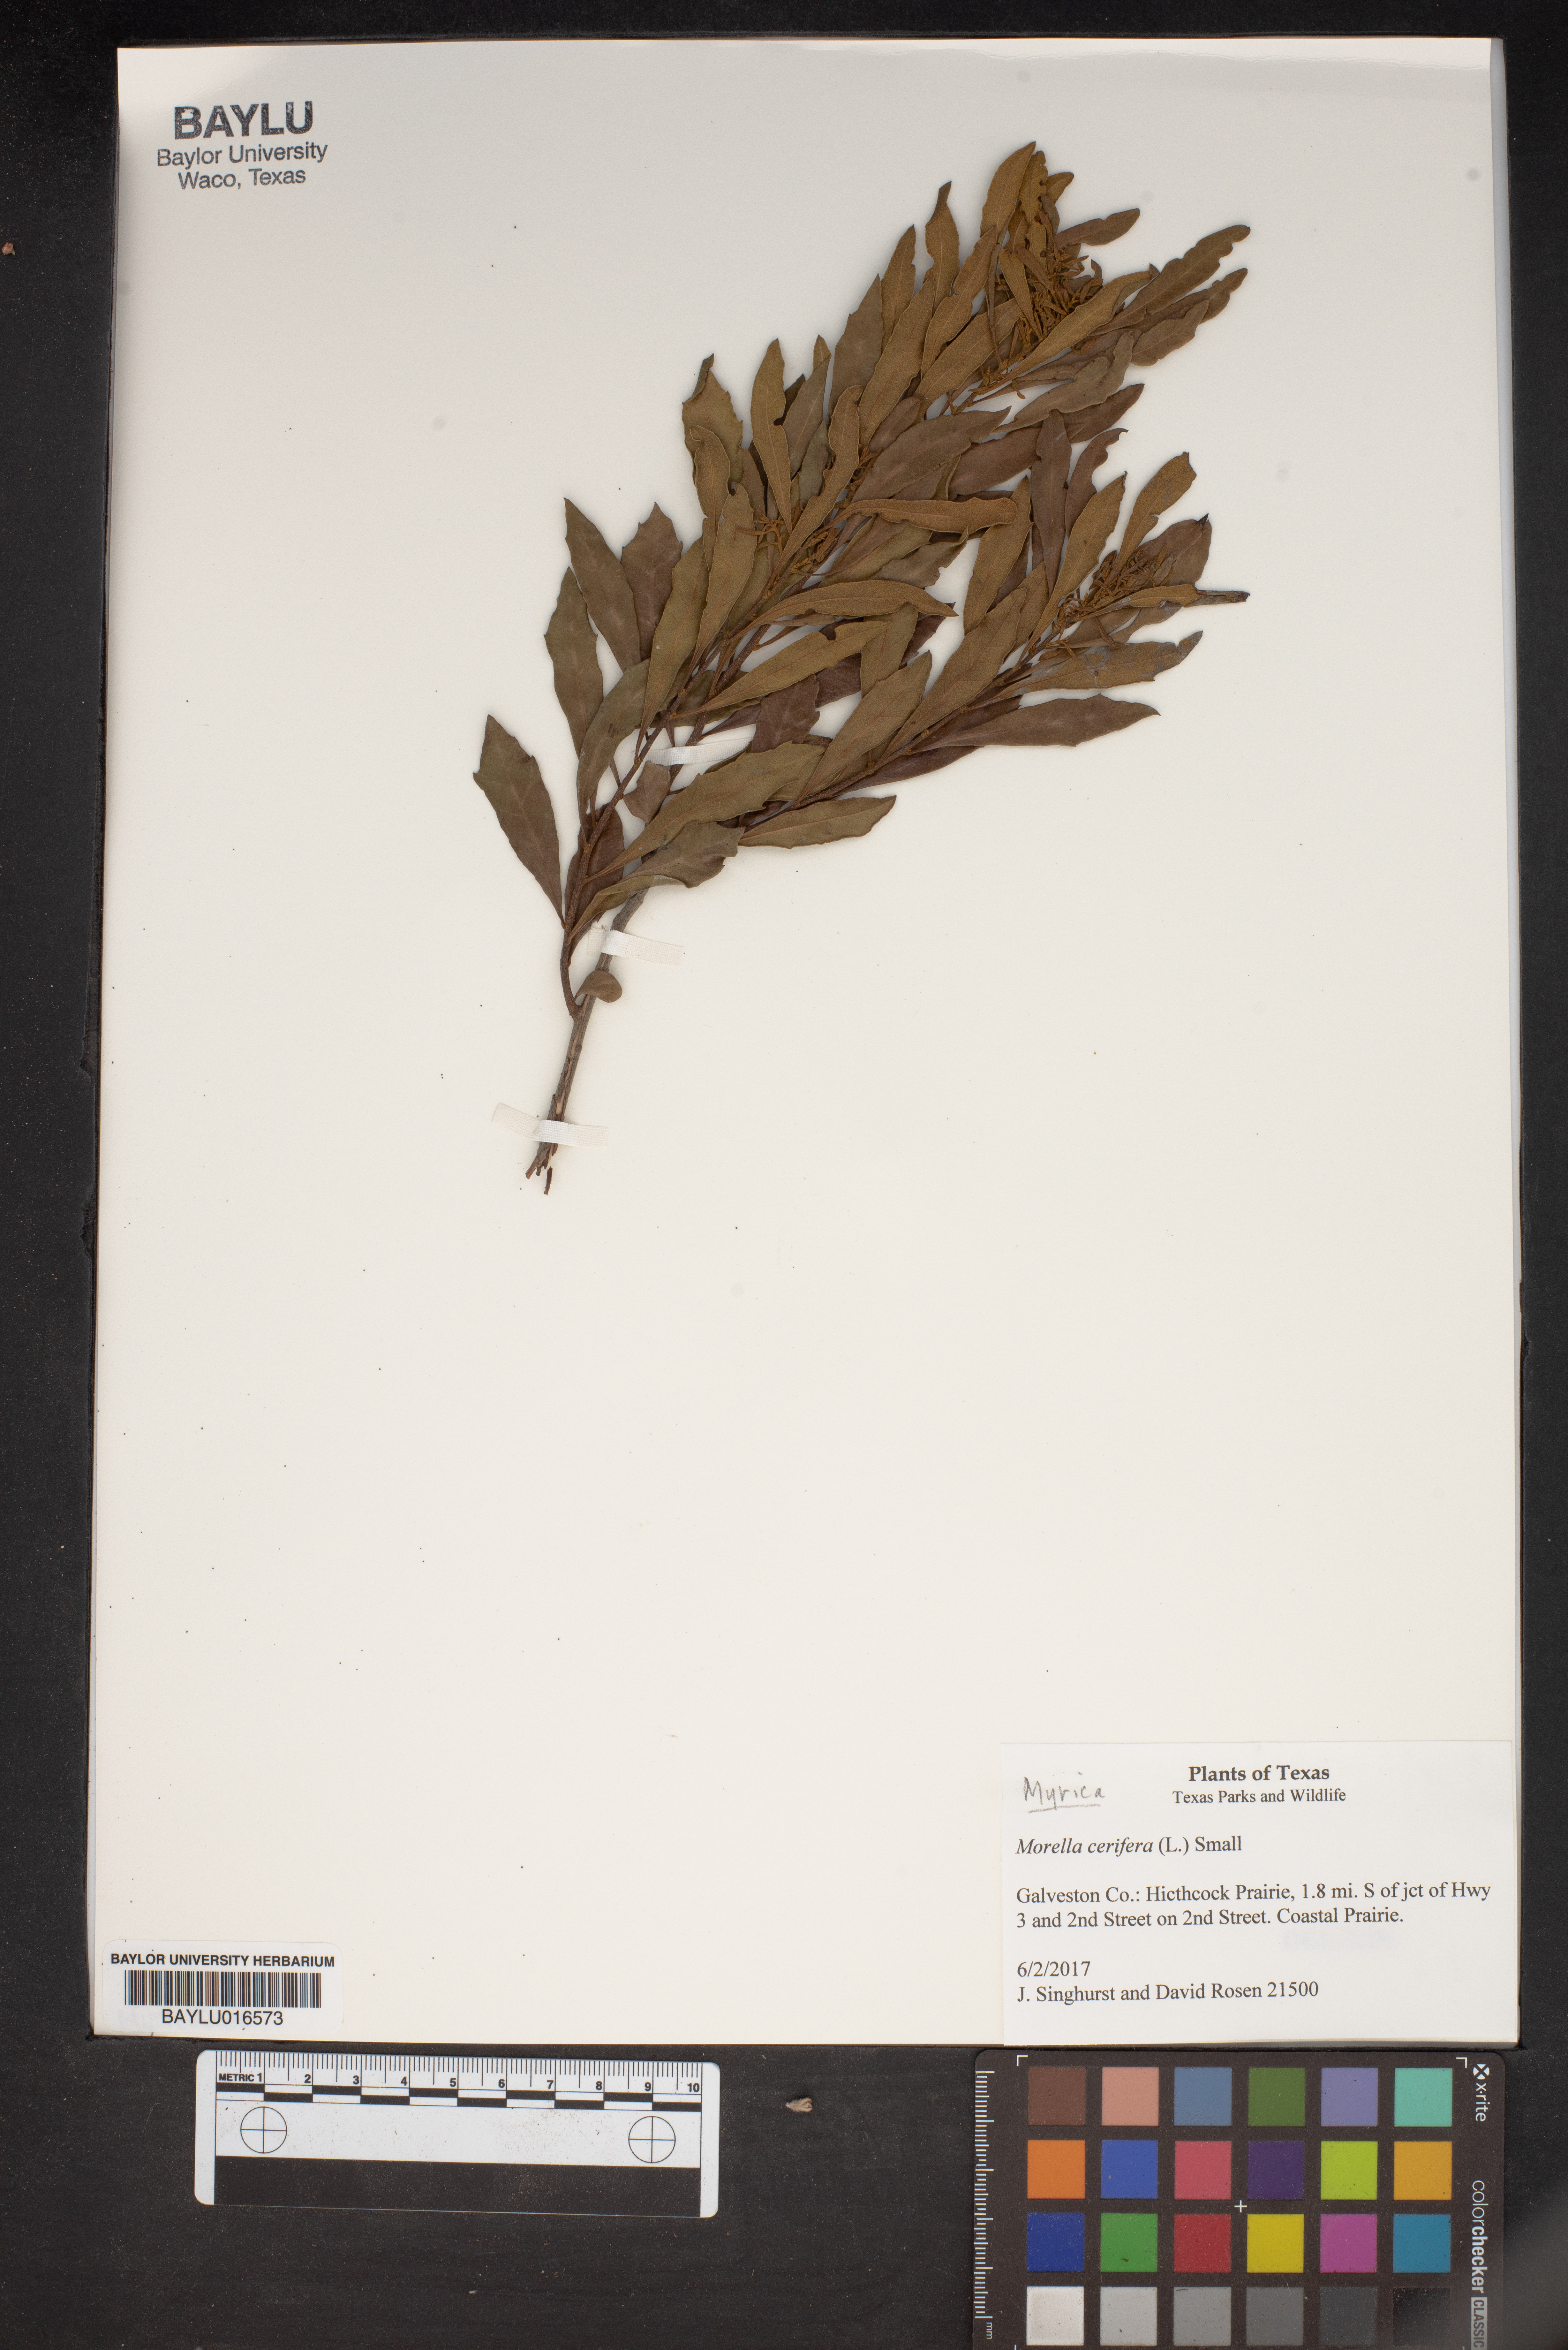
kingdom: Plantae
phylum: Tracheophyta
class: Magnoliopsida
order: Fagales
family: Myricaceae
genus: Morella
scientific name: Morella cerifera
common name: Wax myrtle
